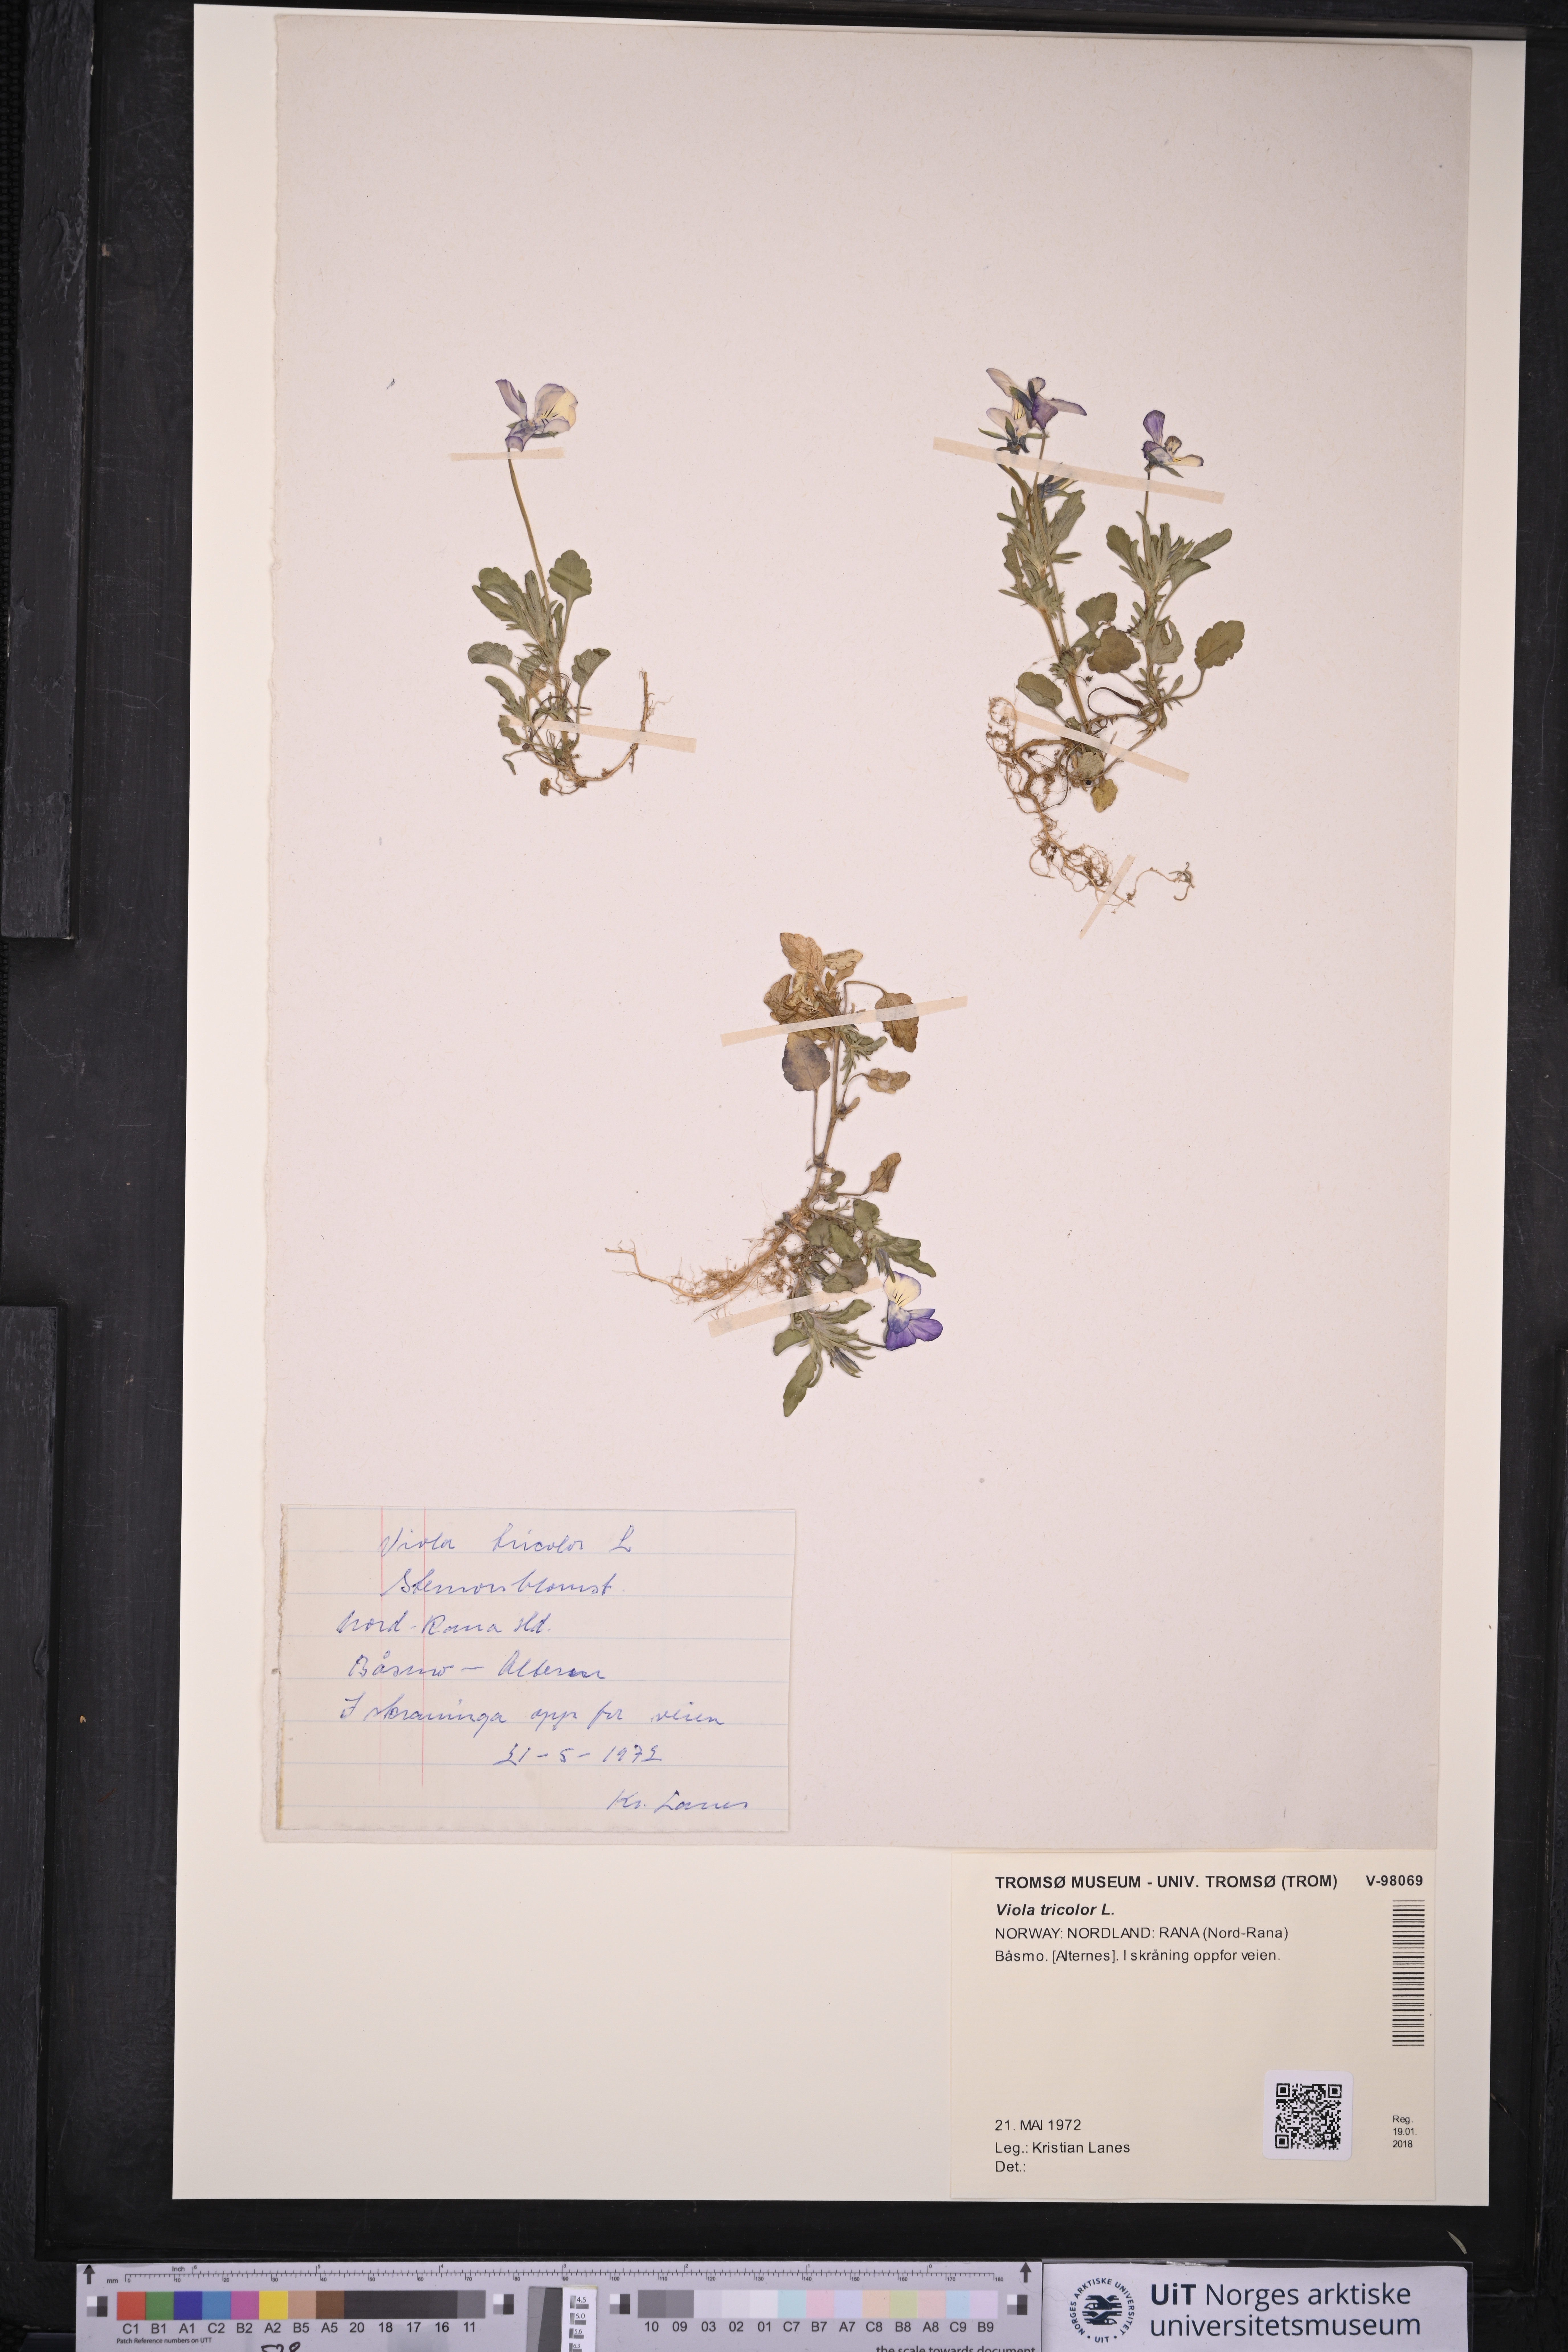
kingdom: Plantae
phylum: Tracheophyta
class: Magnoliopsida
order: Malpighiales
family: Violaceae
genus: Viola
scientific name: Viola tricolor
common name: Pansy
